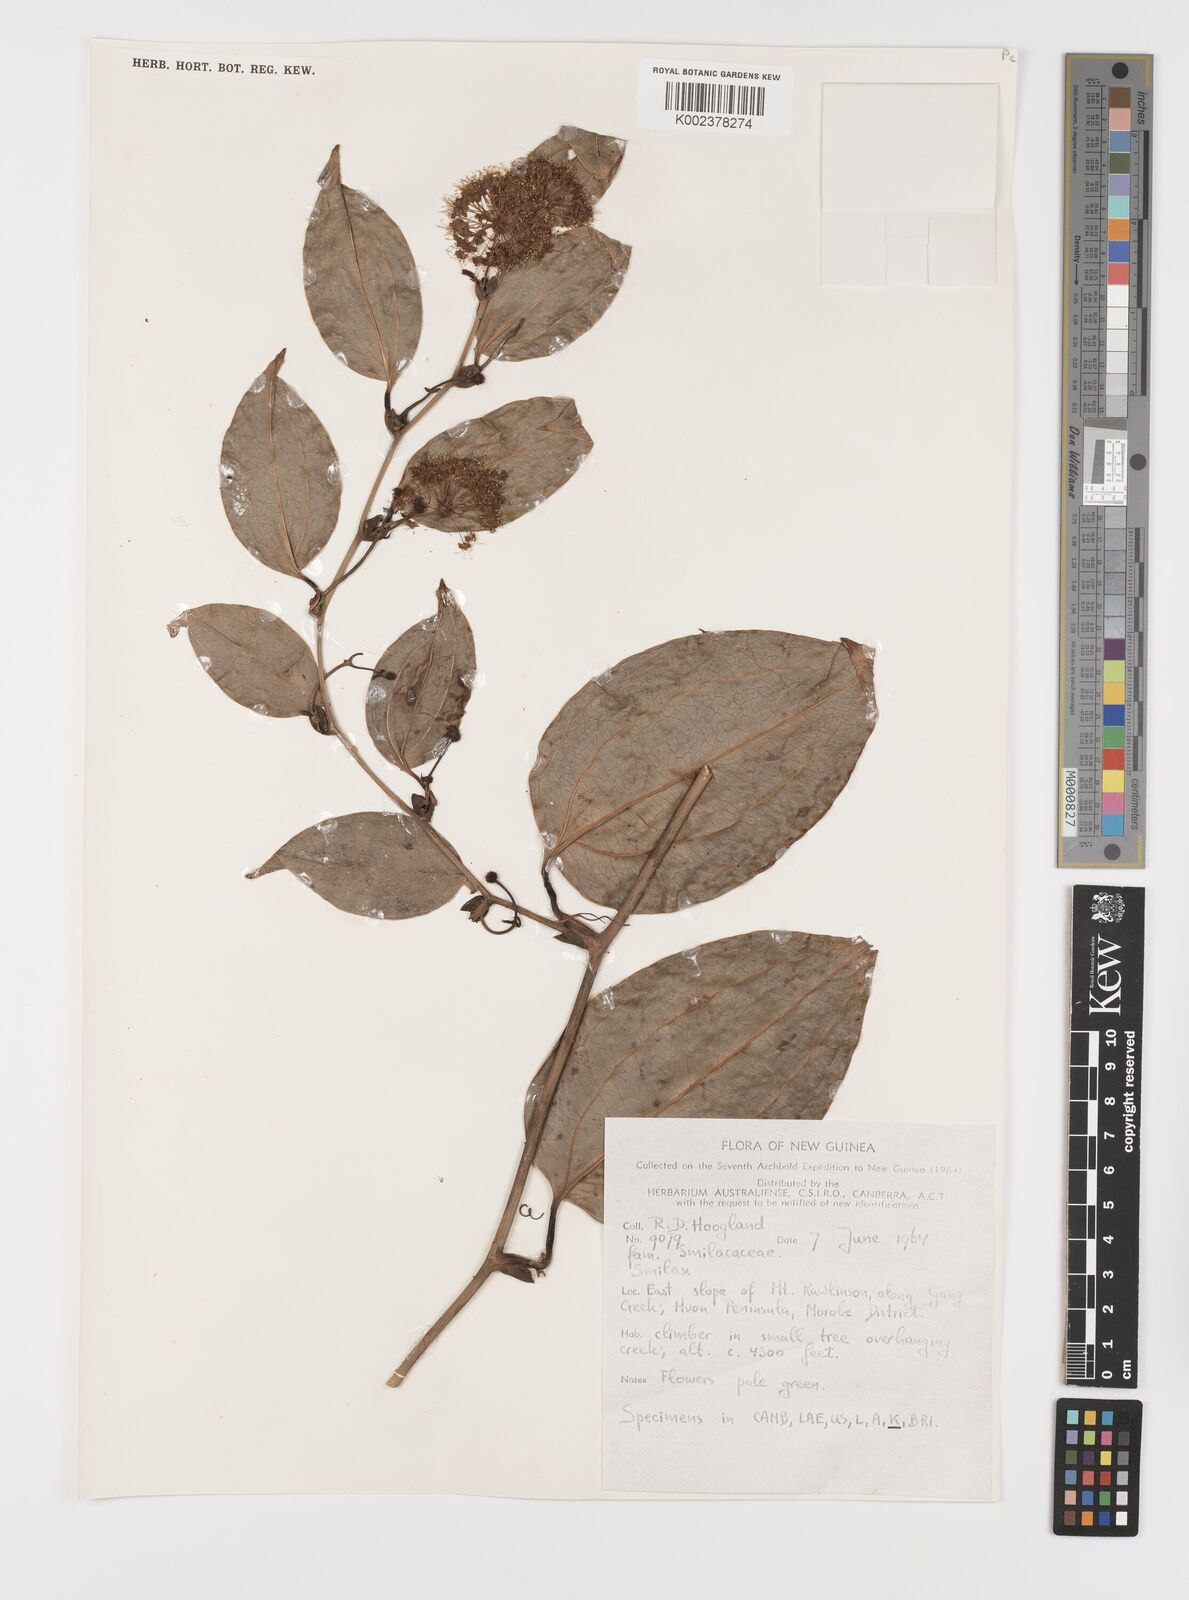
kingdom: Plantae
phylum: Tracheophyta
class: Liliopsida
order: Liliales
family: Smilacaceae
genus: Smilax
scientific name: Smilax
